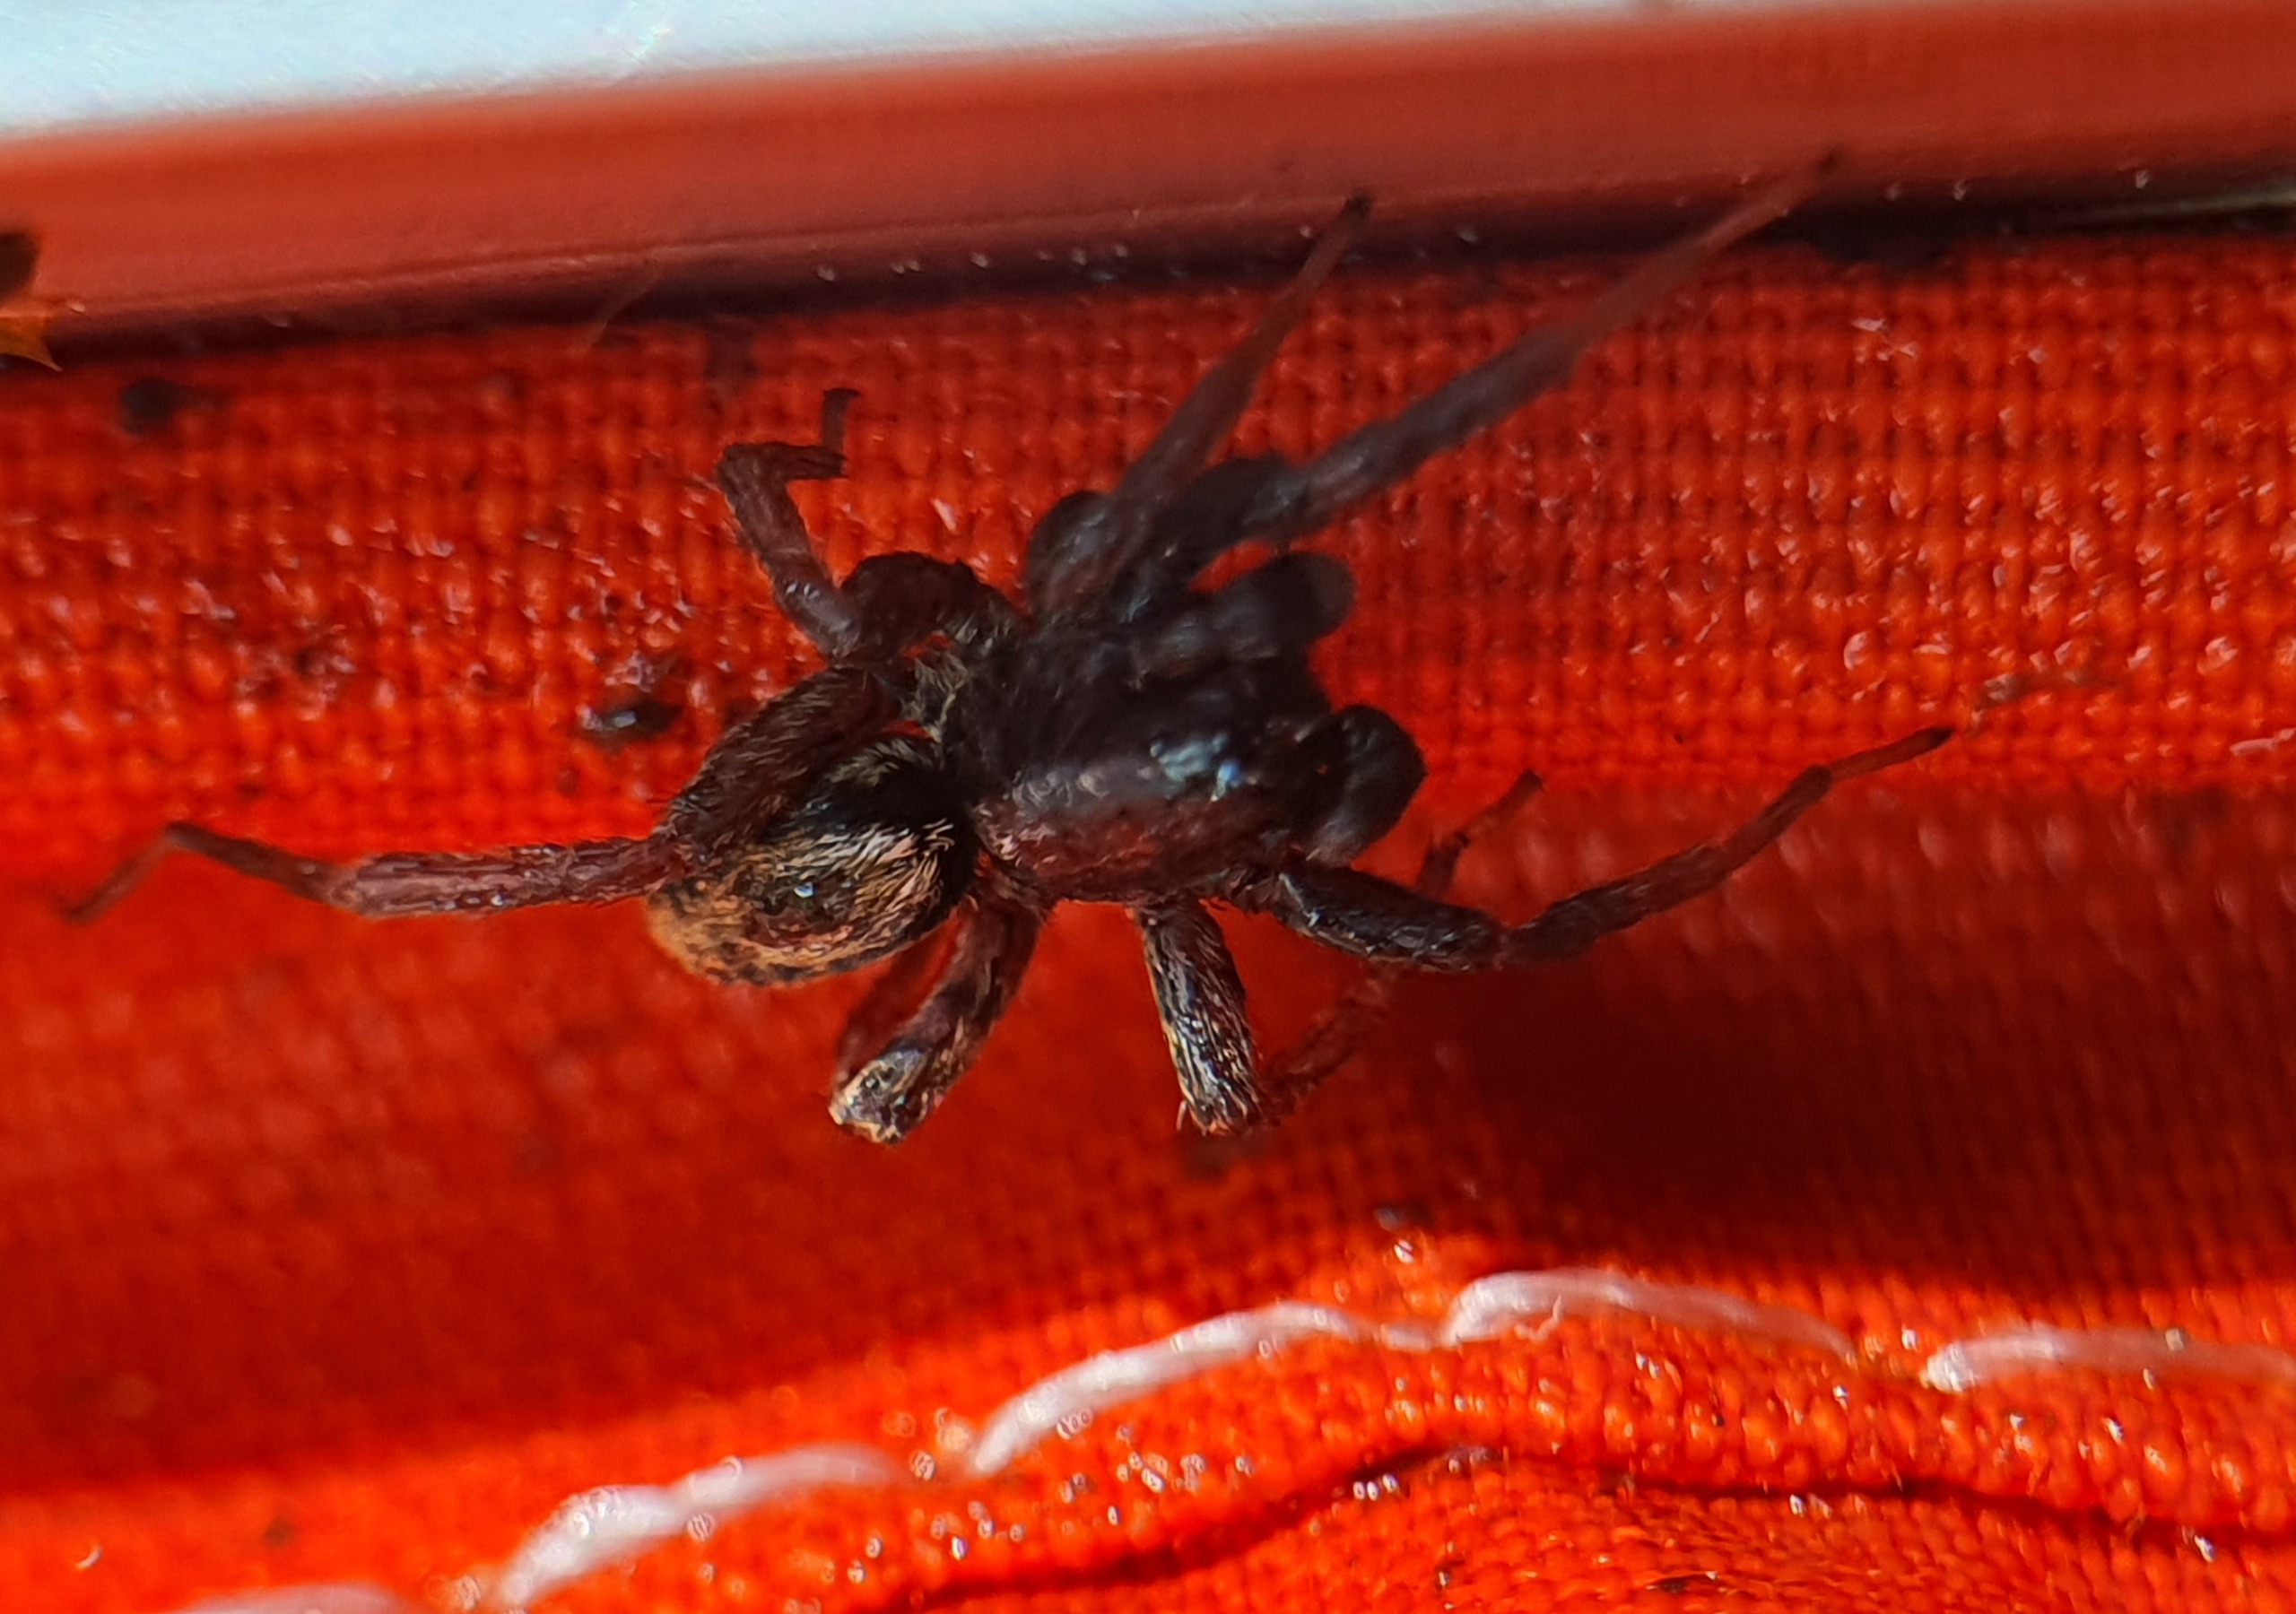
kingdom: Animalia
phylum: Arthropoda
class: Arachnida
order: Araneae
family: Lycosidae
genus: Alopecosa
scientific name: Alopecosa pulverulenta
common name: Kilekæmpejæger
